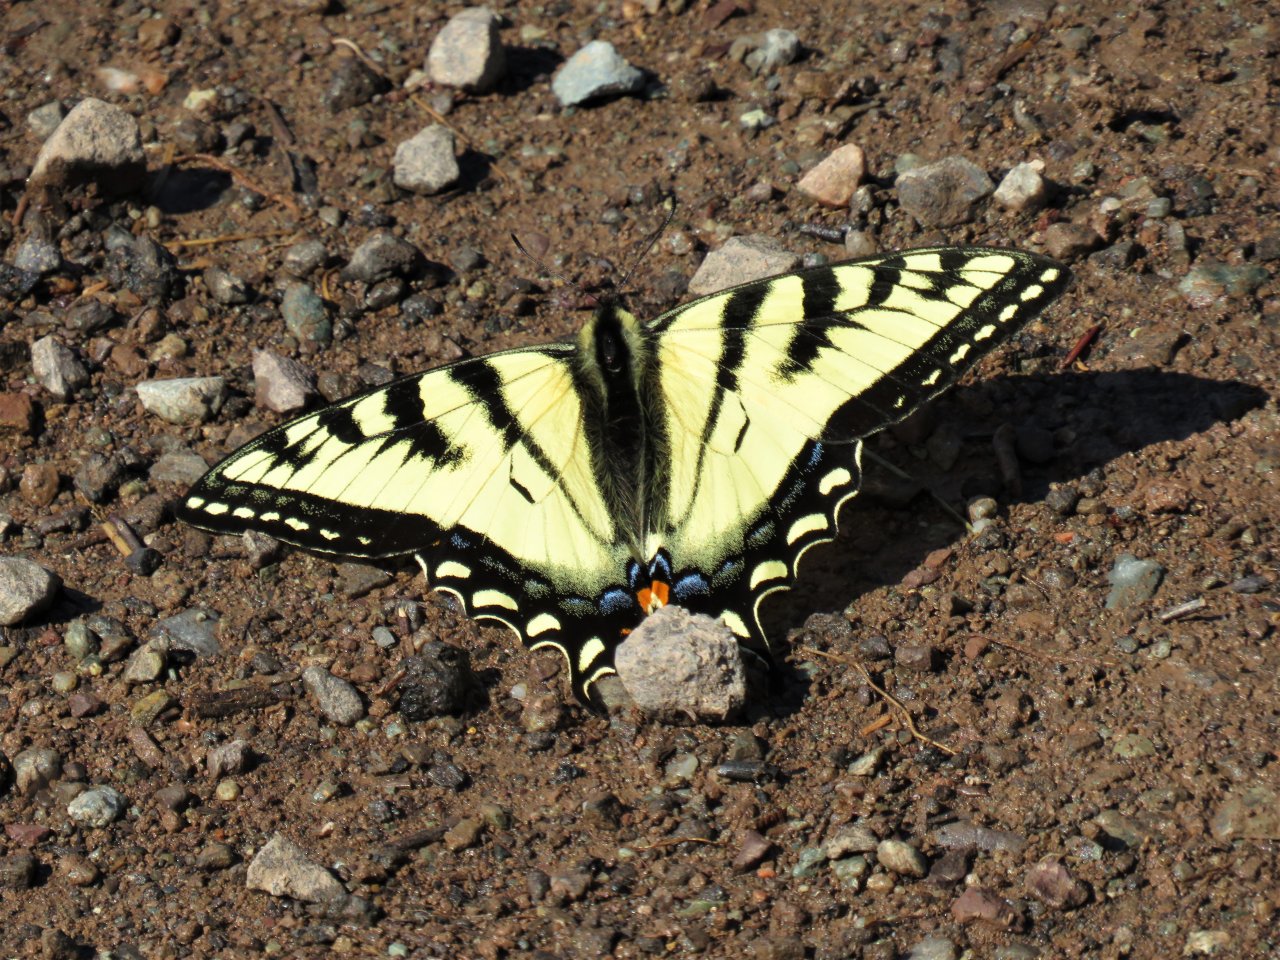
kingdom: Animalia
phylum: Arthropoda
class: Insecta
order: Lepidoptera
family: Papilionidae
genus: Pterourus
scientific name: Pterourus canadensis
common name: Canadian Tiger Swallowtail
